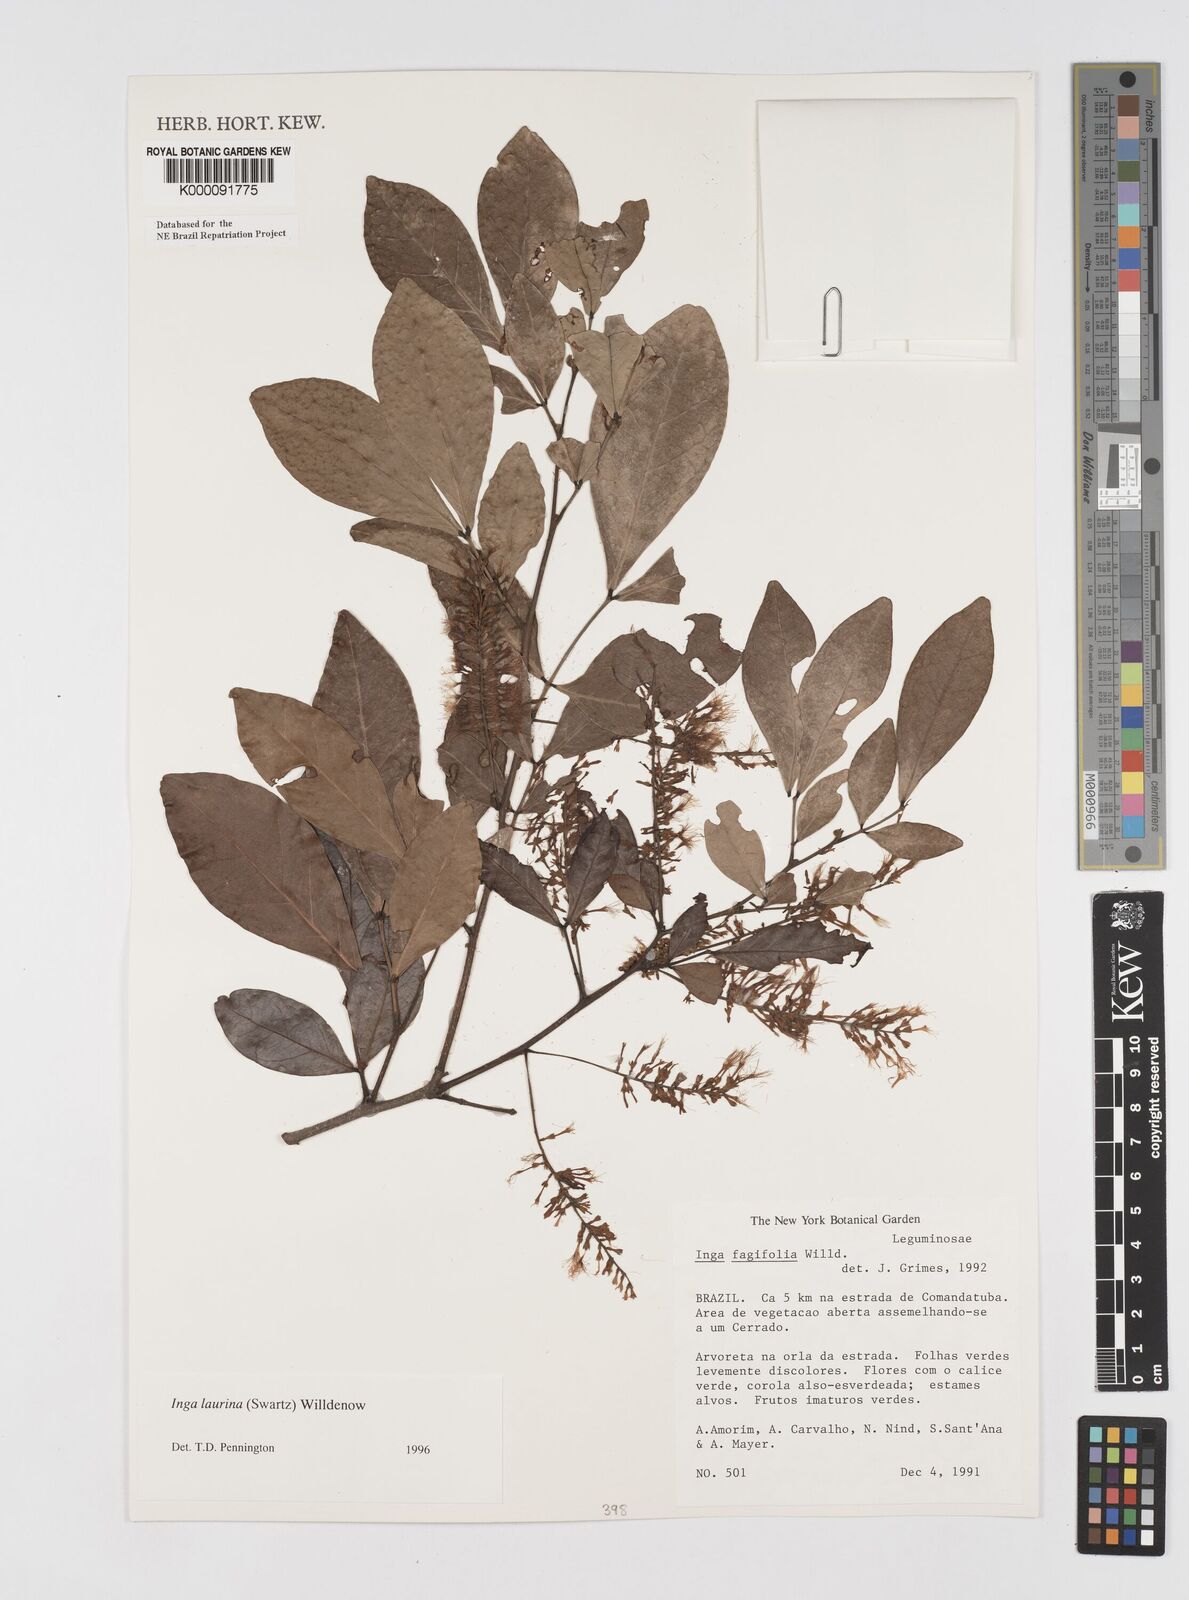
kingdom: Plantae
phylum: Tracheophyta
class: Magnoliopsida
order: Fabales
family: Fabaceae
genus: Inga
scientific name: Inga laurina
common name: Red wood
